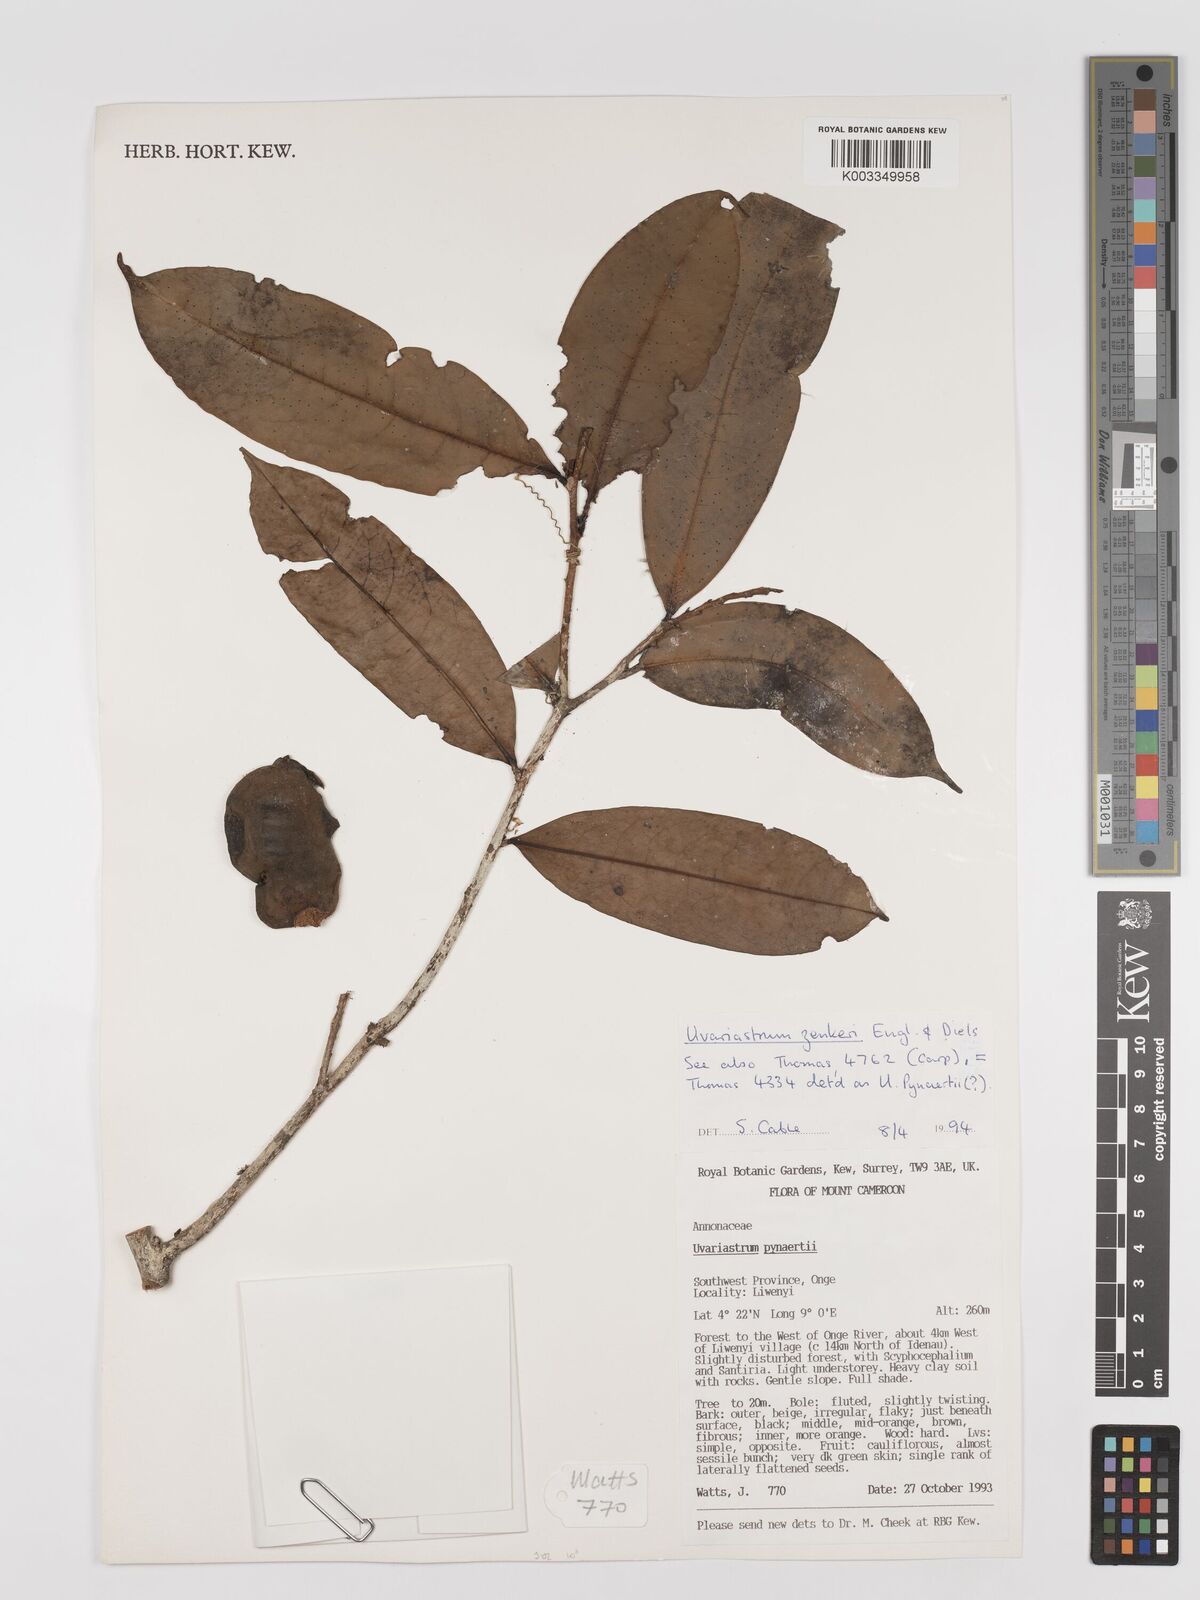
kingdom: Plantae
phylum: Tracheophyta
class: Magnoliopsida
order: Magnoliales
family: Annonaceae
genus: Uvariastrum
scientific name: Uvariastrum zenkeri
